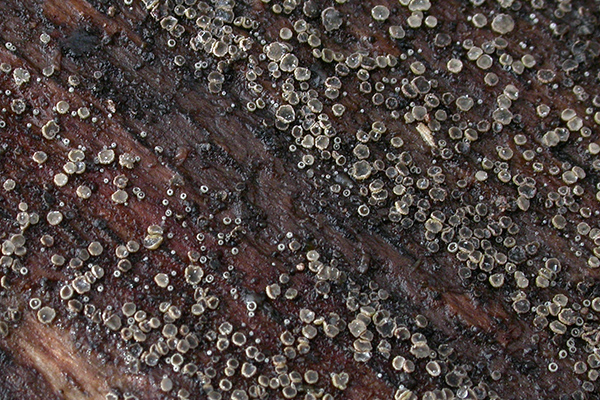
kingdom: Fungi
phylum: Ascomycota
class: Leotiomycetes
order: Helotiales
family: Hyphodiscaceae
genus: Hyphodiscus
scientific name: Hyphodiscus hymeniophilus
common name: snyltende sirskive
